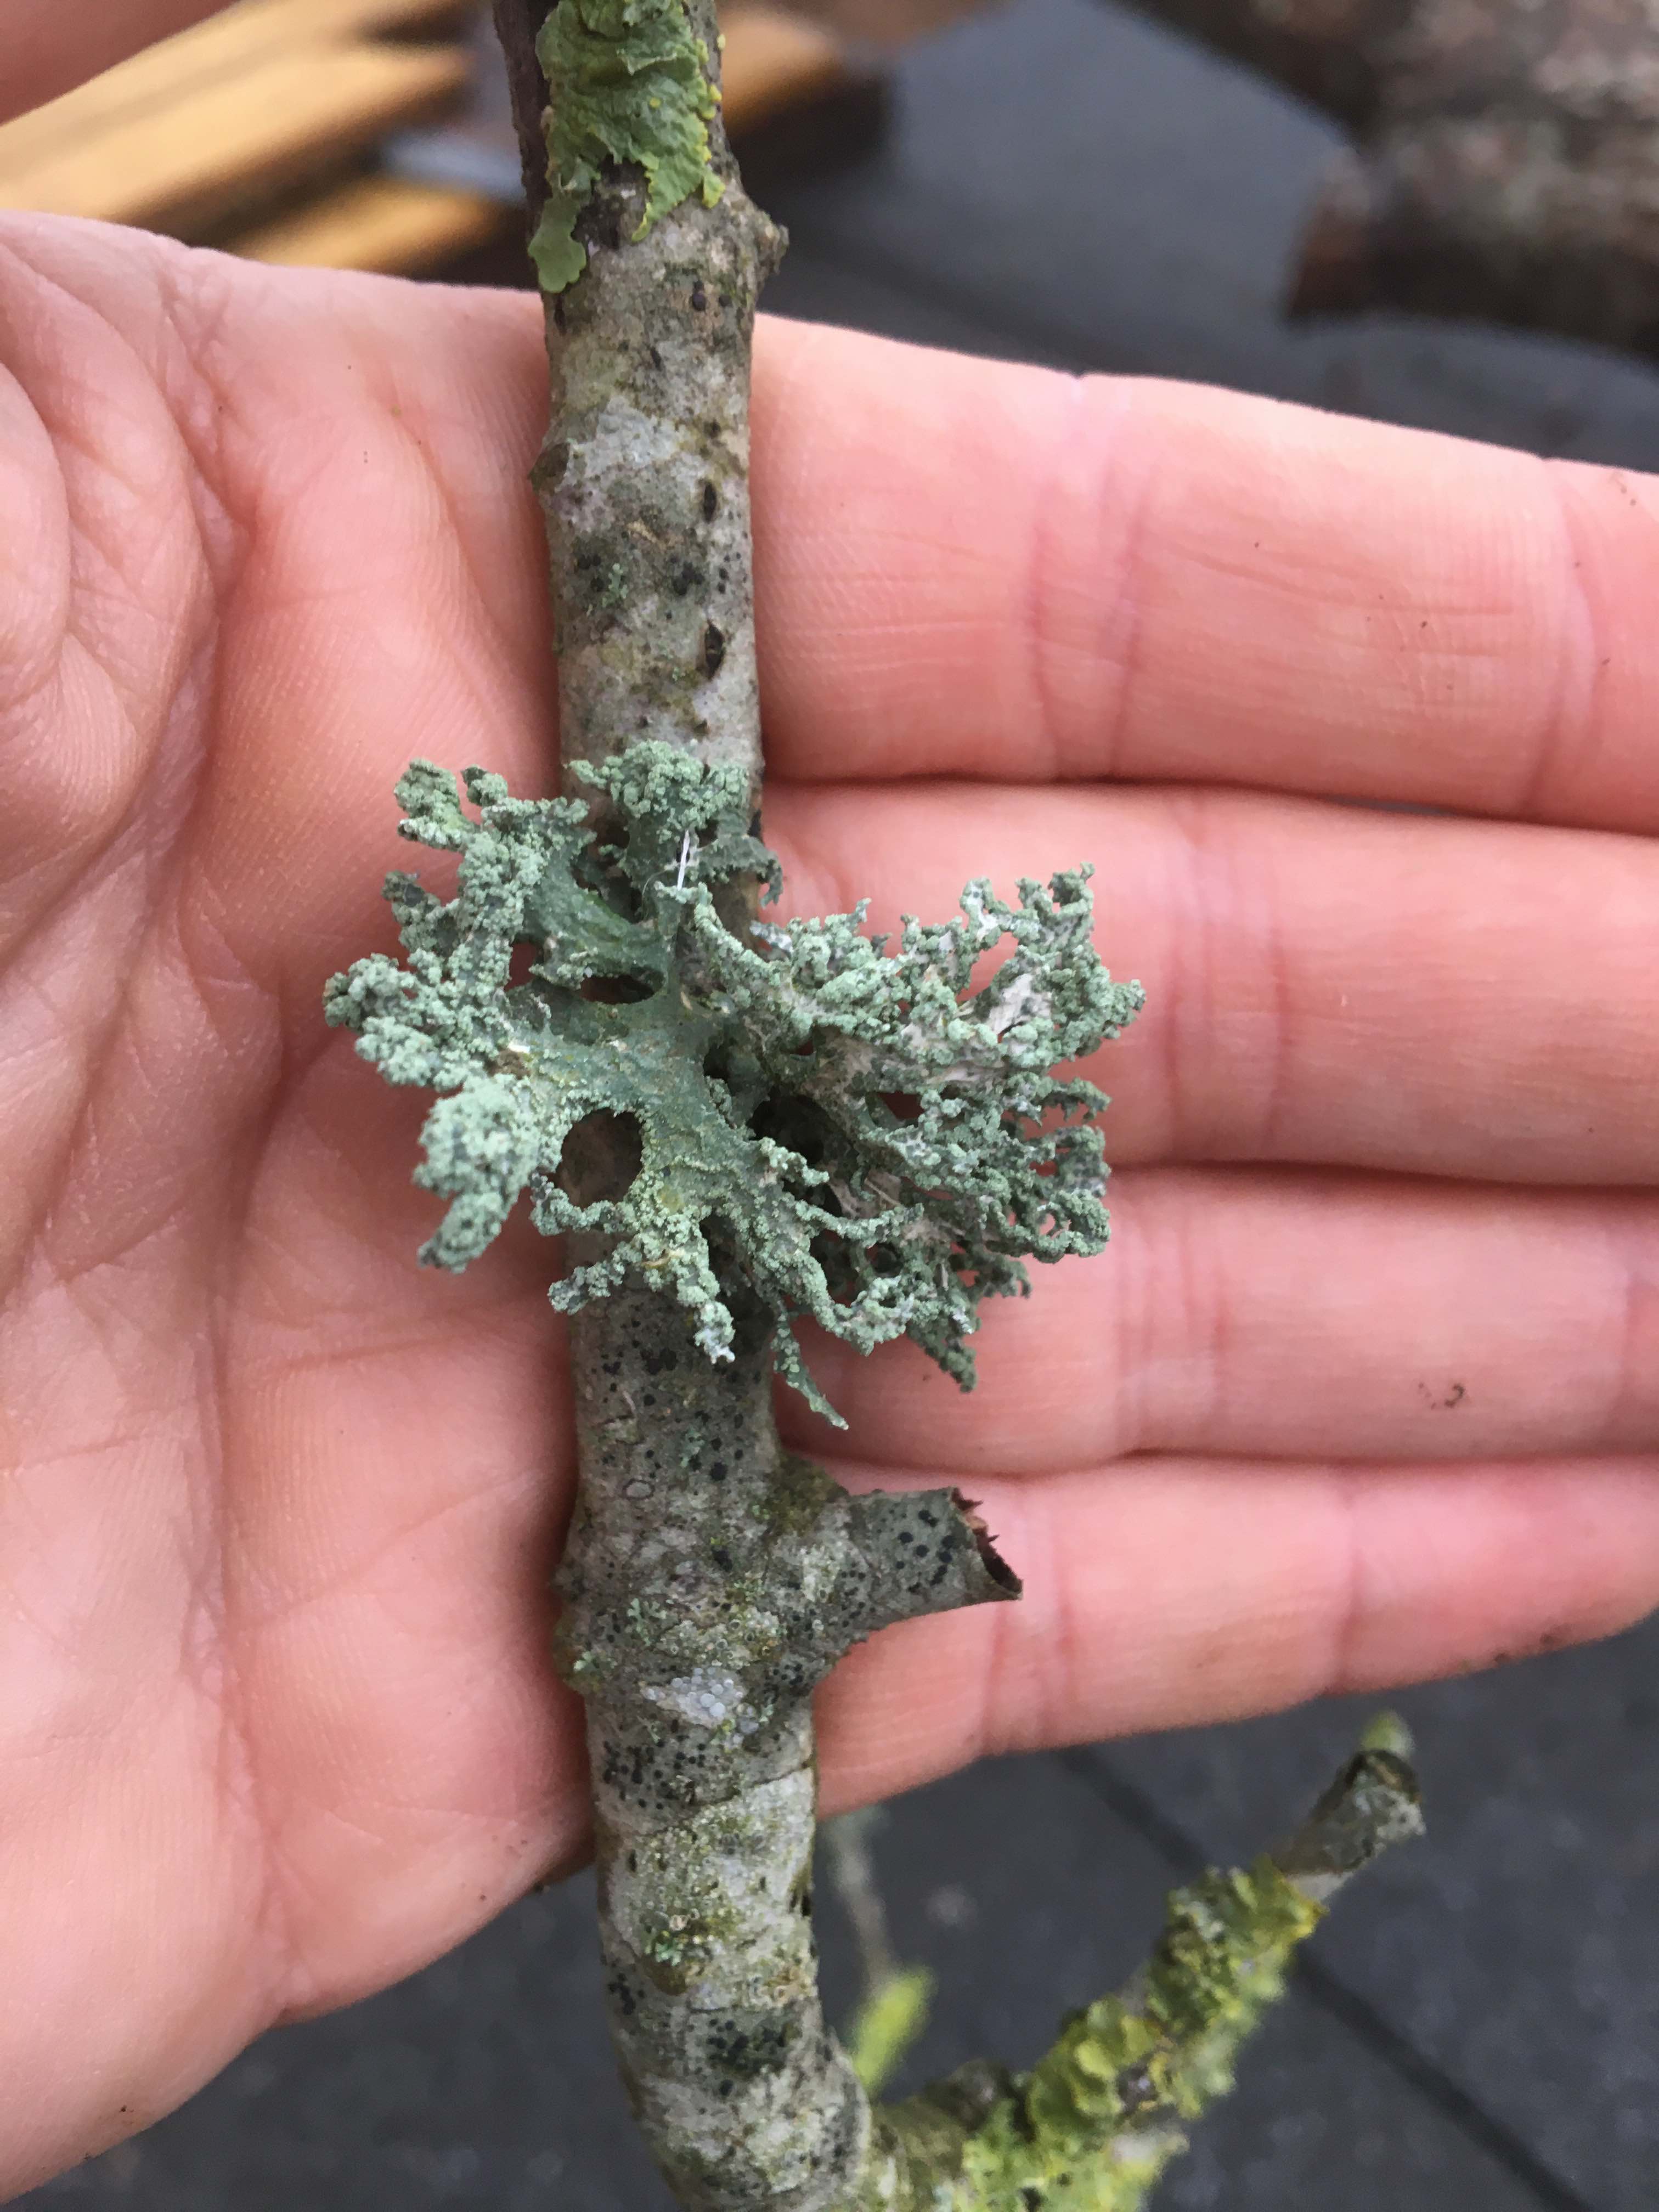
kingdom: Fungi
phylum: Ascomycota
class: Lecanoromycetes
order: Lecanorales
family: Parmeliaceae
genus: Evernia
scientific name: Evernia prunastri
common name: almindelig slåenlav
